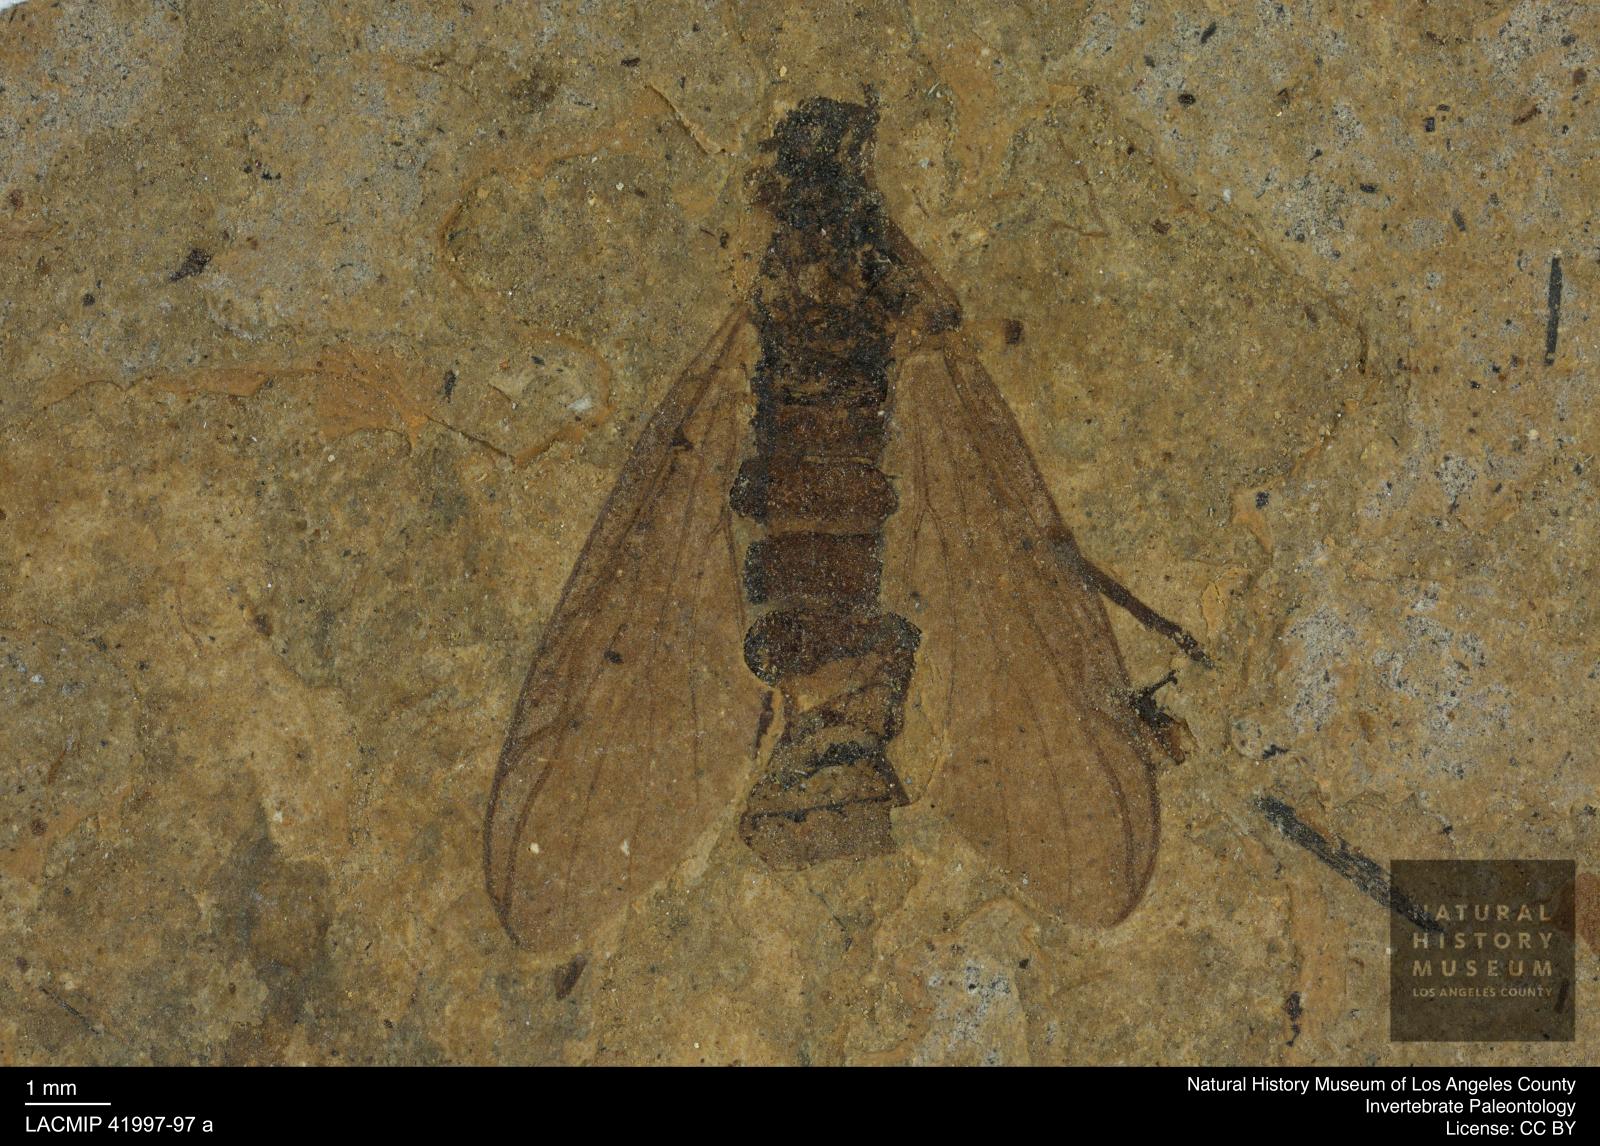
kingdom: Animalia
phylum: Arthropoda
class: Insecta
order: Diptera
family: Bibionidae
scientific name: Bibionidae
